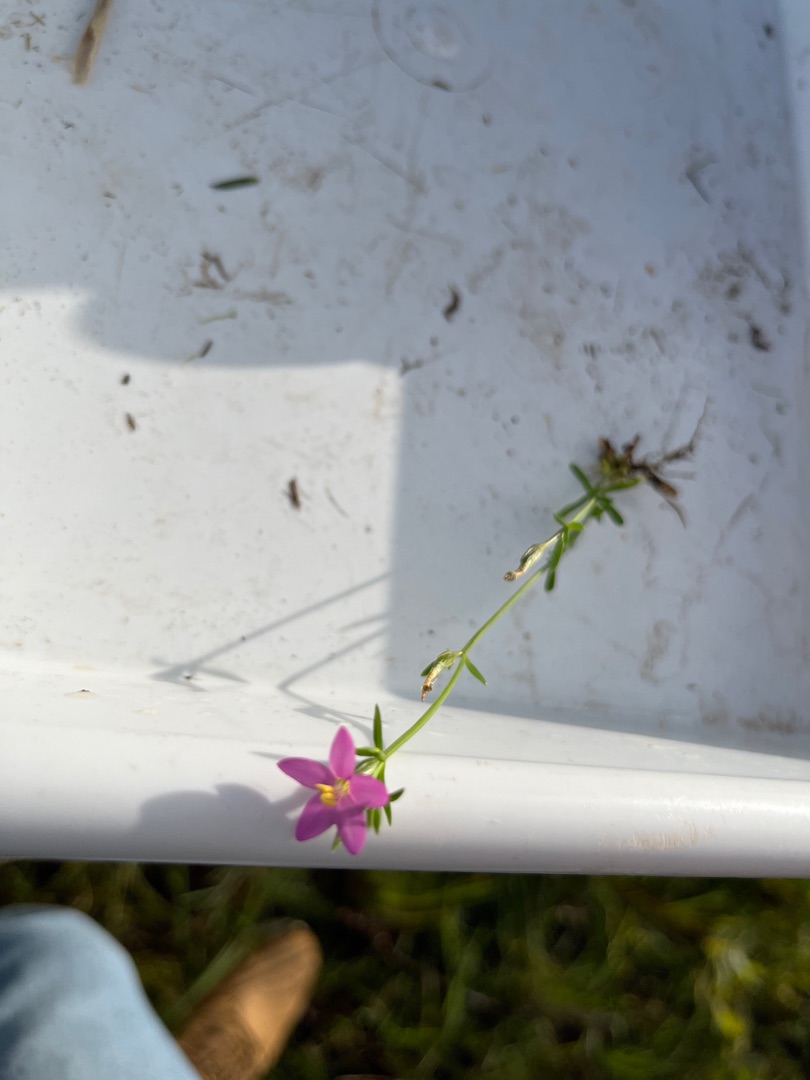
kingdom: Plantae
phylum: Tracheophyta
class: Magnoliopsida
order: Gentianales
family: Gentianaceae
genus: Centaurium
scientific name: Centaurium erythraea
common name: Mark-tusindgylden
